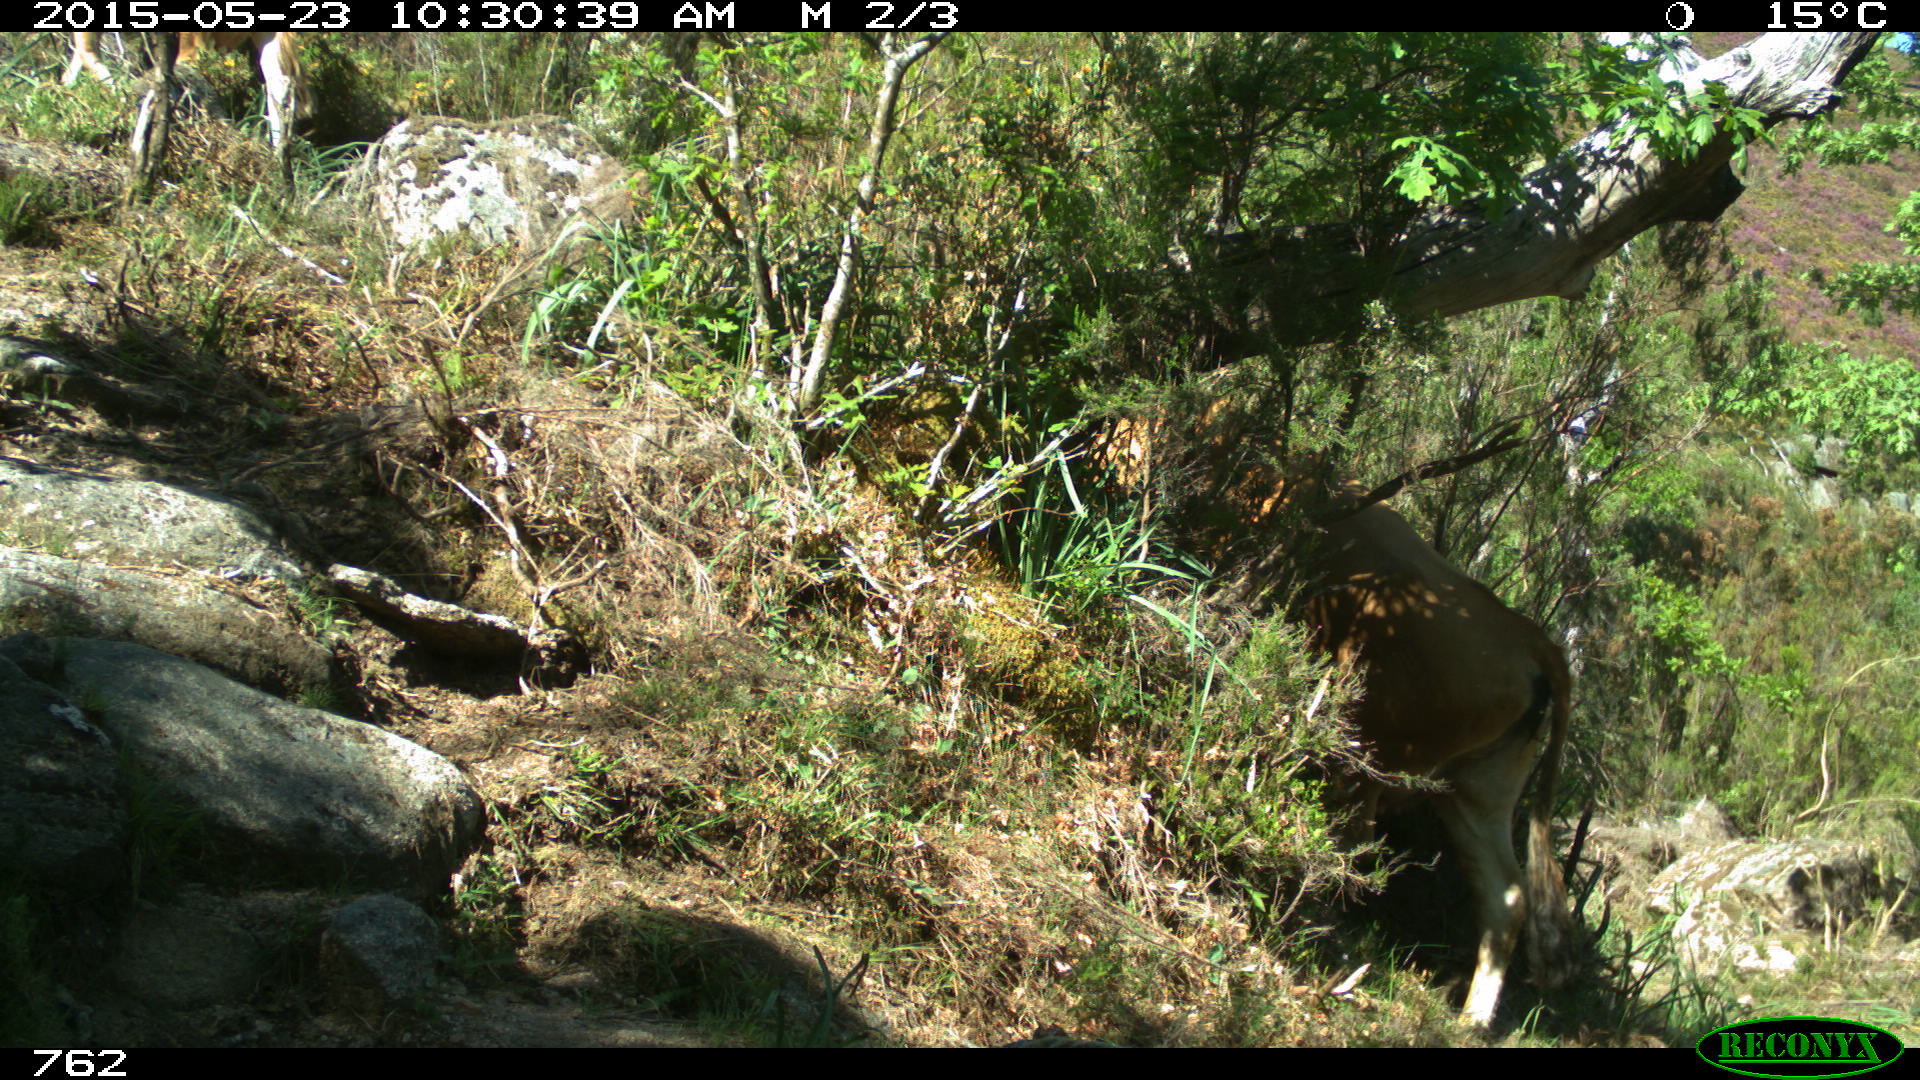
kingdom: Animalia
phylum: Chordata
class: Mammalia
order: Artiodactyla
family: Bovidae
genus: Bos
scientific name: Bos taurus
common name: Domesticated cattle
